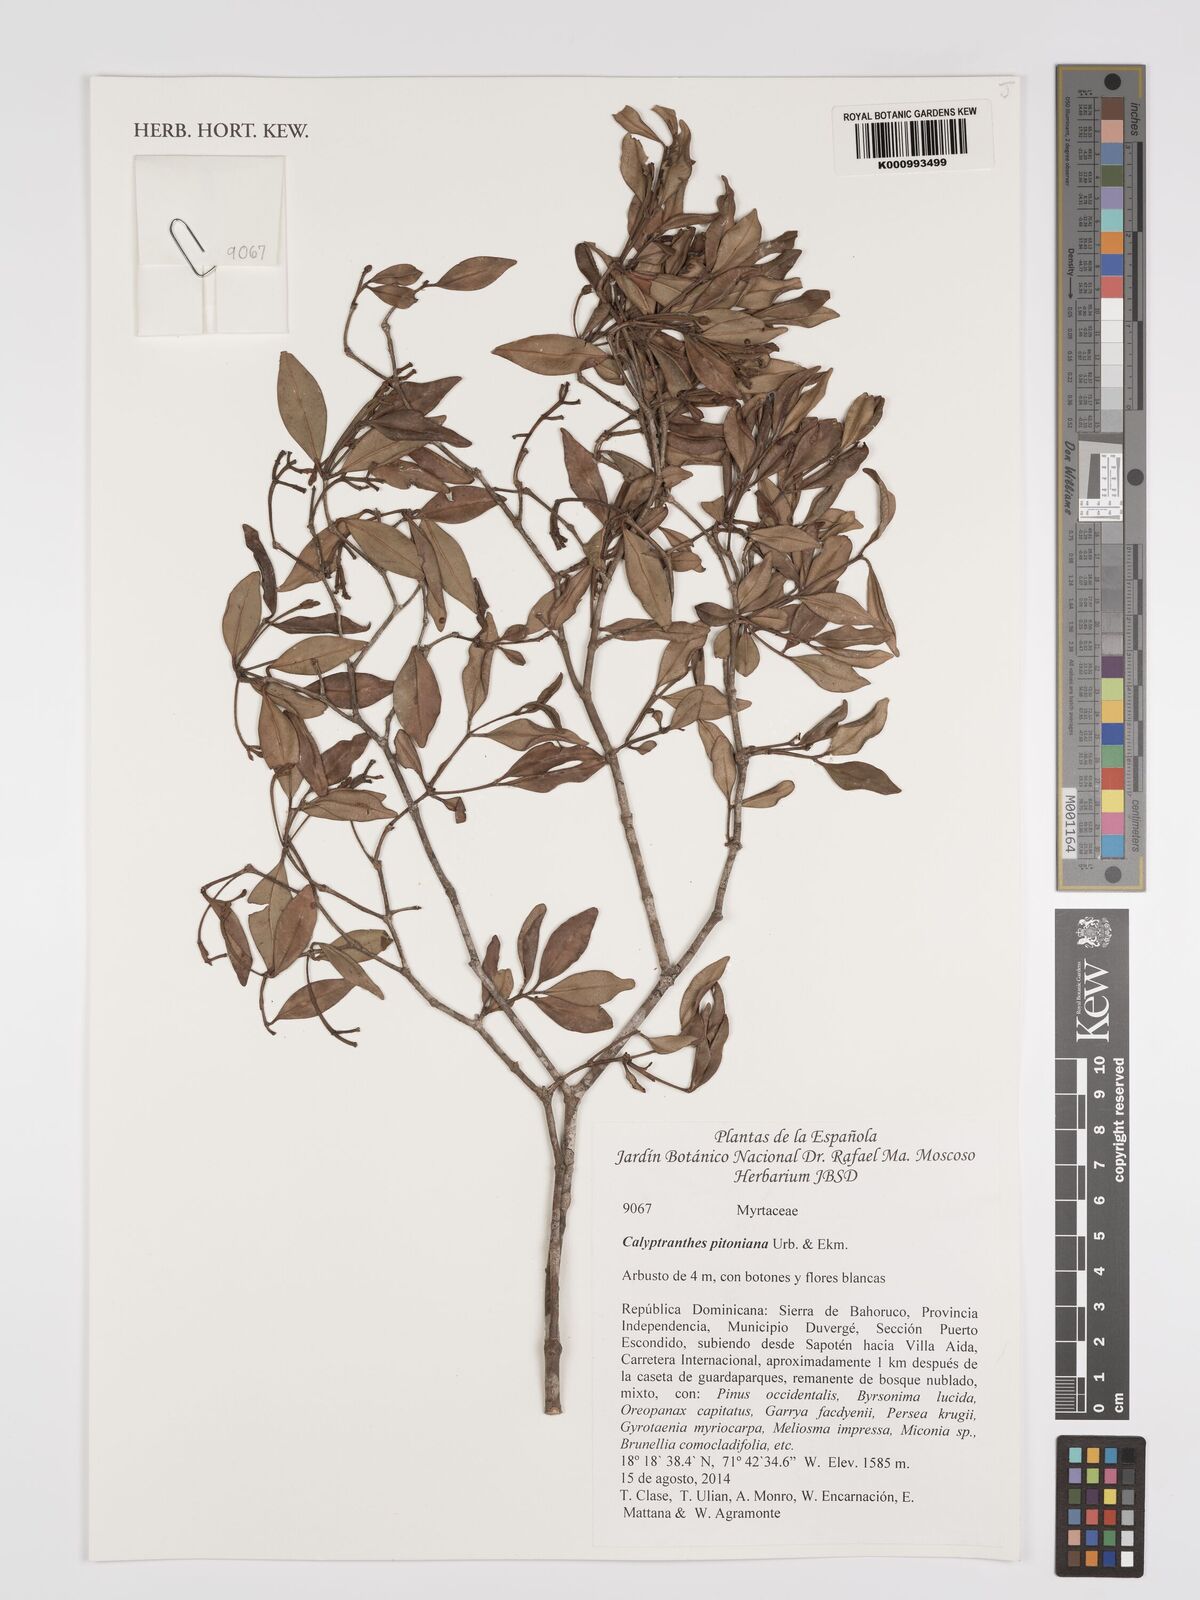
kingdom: Plantae
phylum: Tracheophyta
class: Magnoliopsida
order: Myrtales
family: Myrtaceae
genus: Myrcia
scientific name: Myrcia pitoniana
